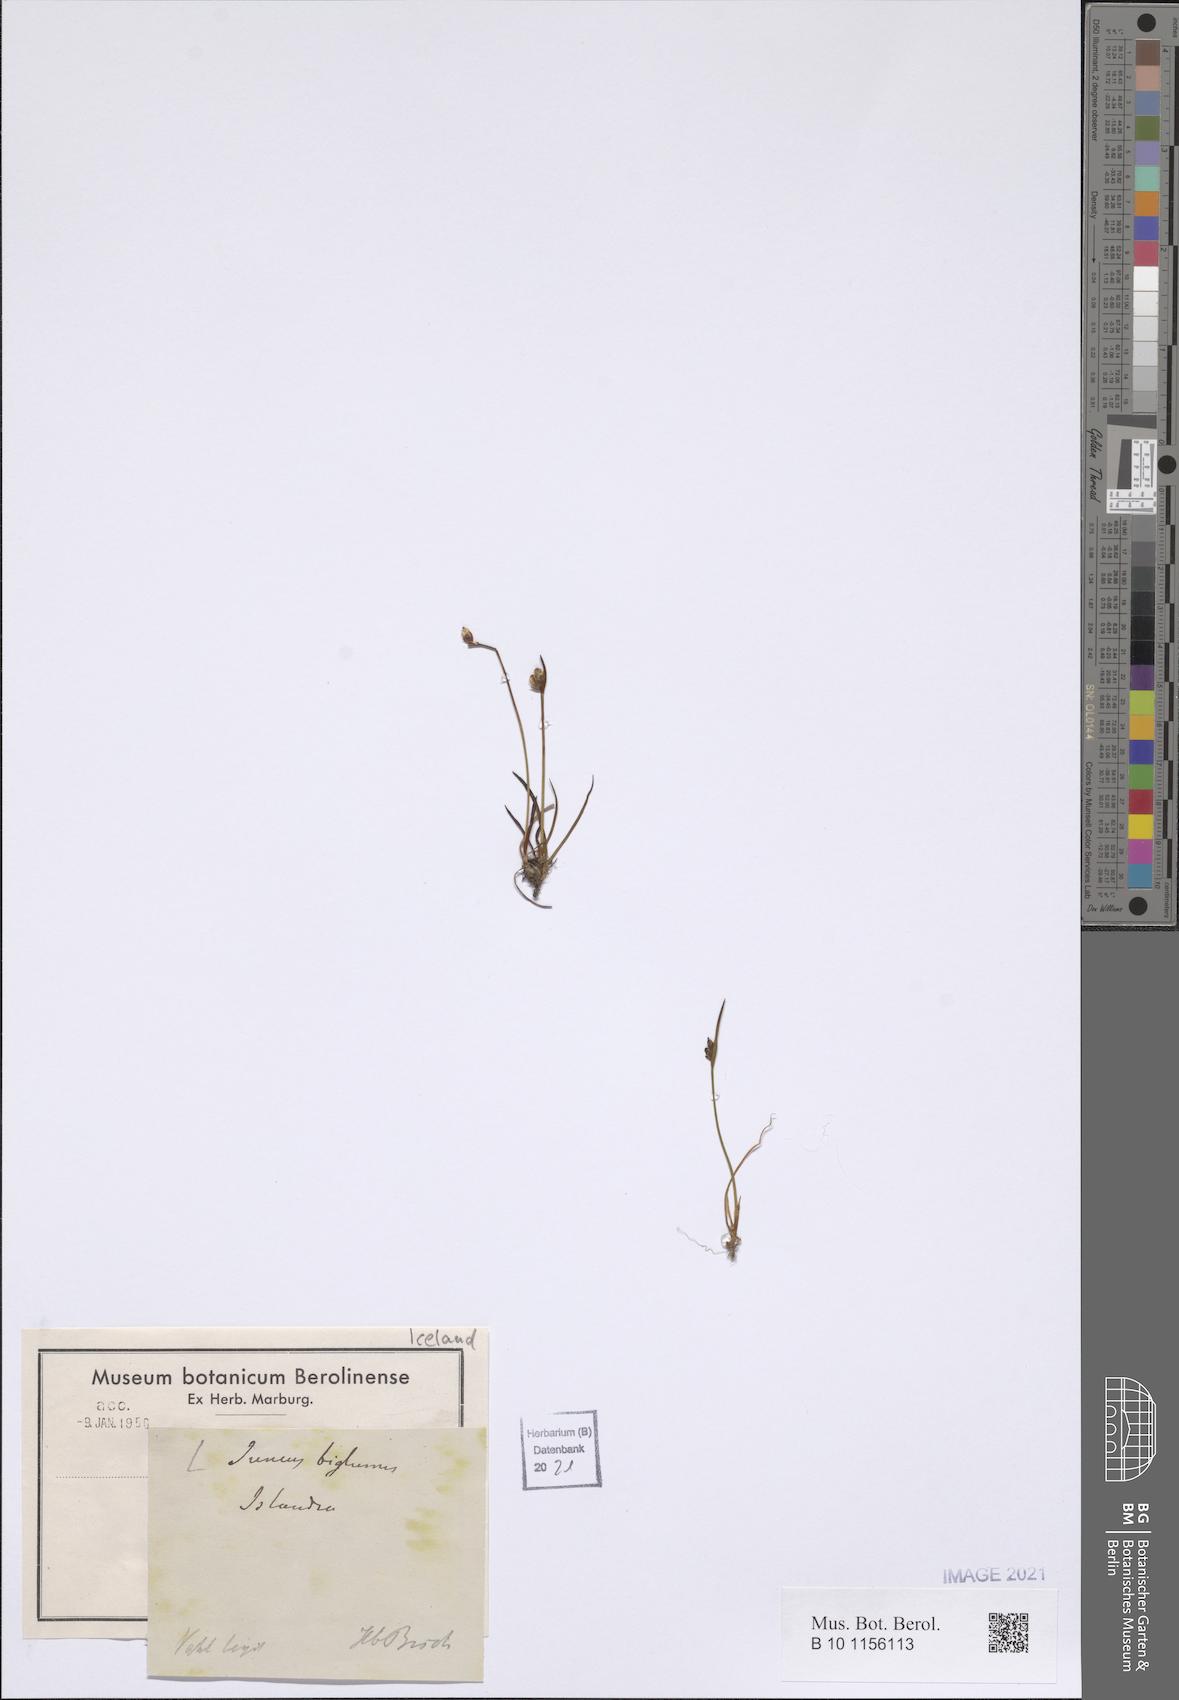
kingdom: Plantae
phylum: Tracheophyta
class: Liliopsida
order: Poales
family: Juncaceae
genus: Juncus
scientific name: Juncus biglumis
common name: Two-flowered rush
